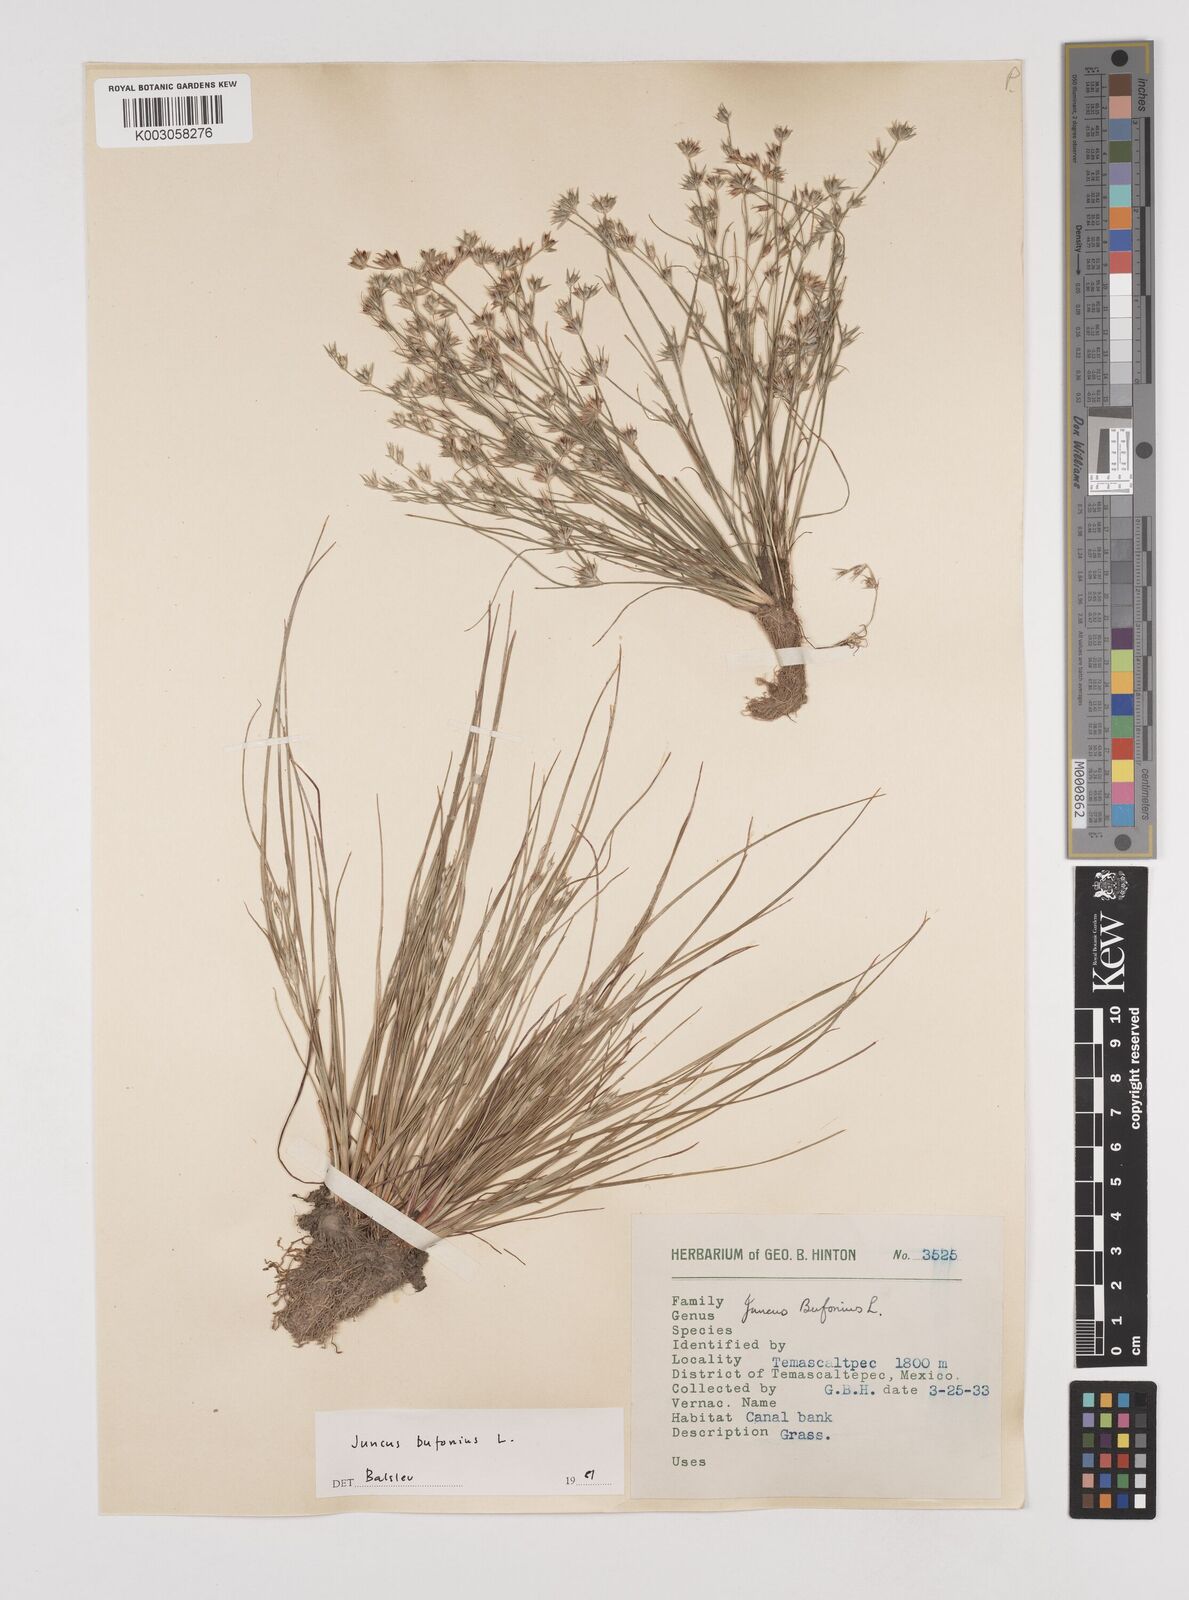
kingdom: Plantae
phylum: Tracheophyta
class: Liliopsida
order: Poales
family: Juncaceae
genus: Juncus
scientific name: Juncus bufonius
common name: Toad rush
